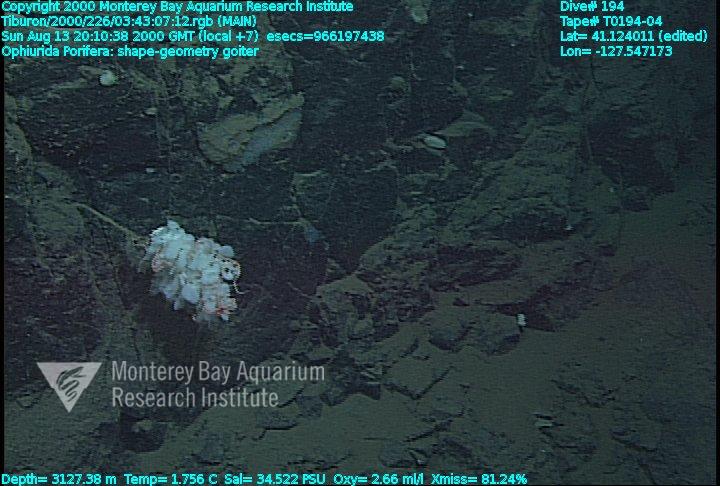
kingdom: Animalia
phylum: Porifera
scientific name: Porifera
